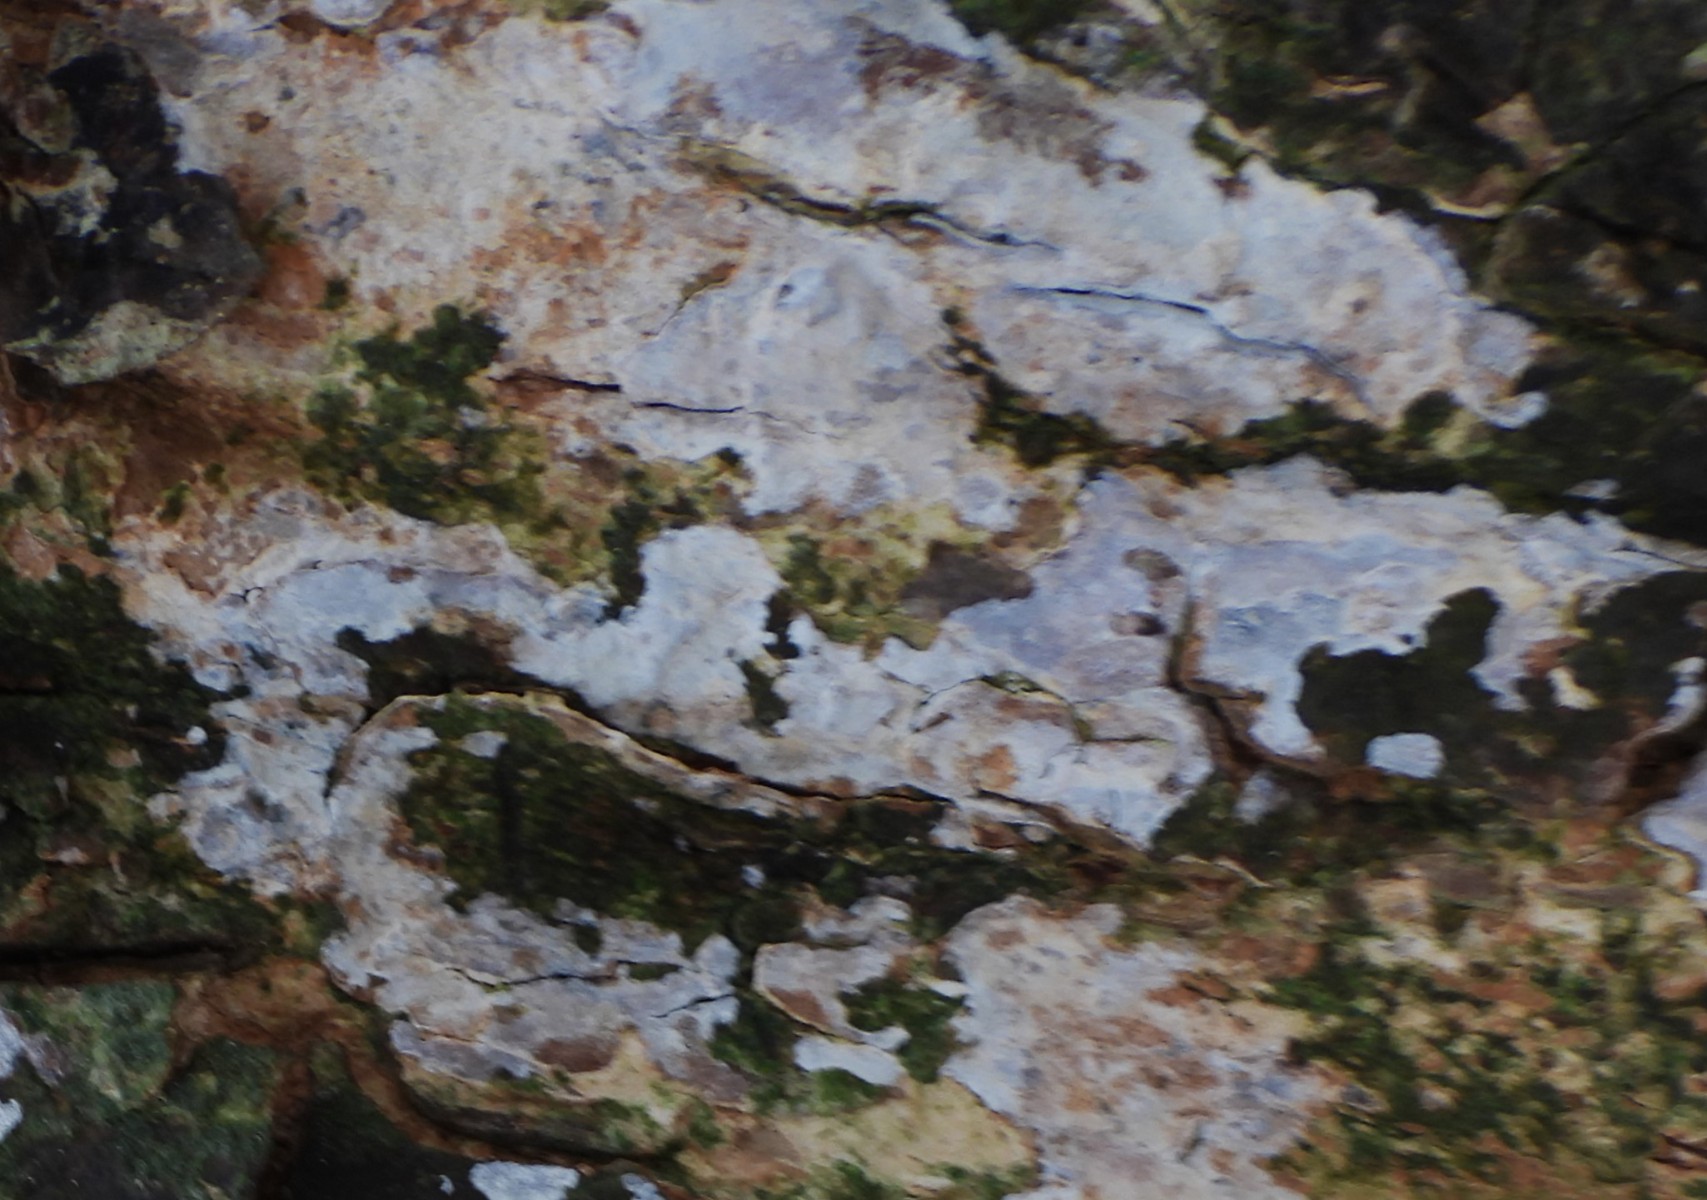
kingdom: Fungi
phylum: Basidiomycota
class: Agaricomycetes
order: Agaricales
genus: Dendrothele
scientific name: Dendrothele acerina
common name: navr-kalkplet
